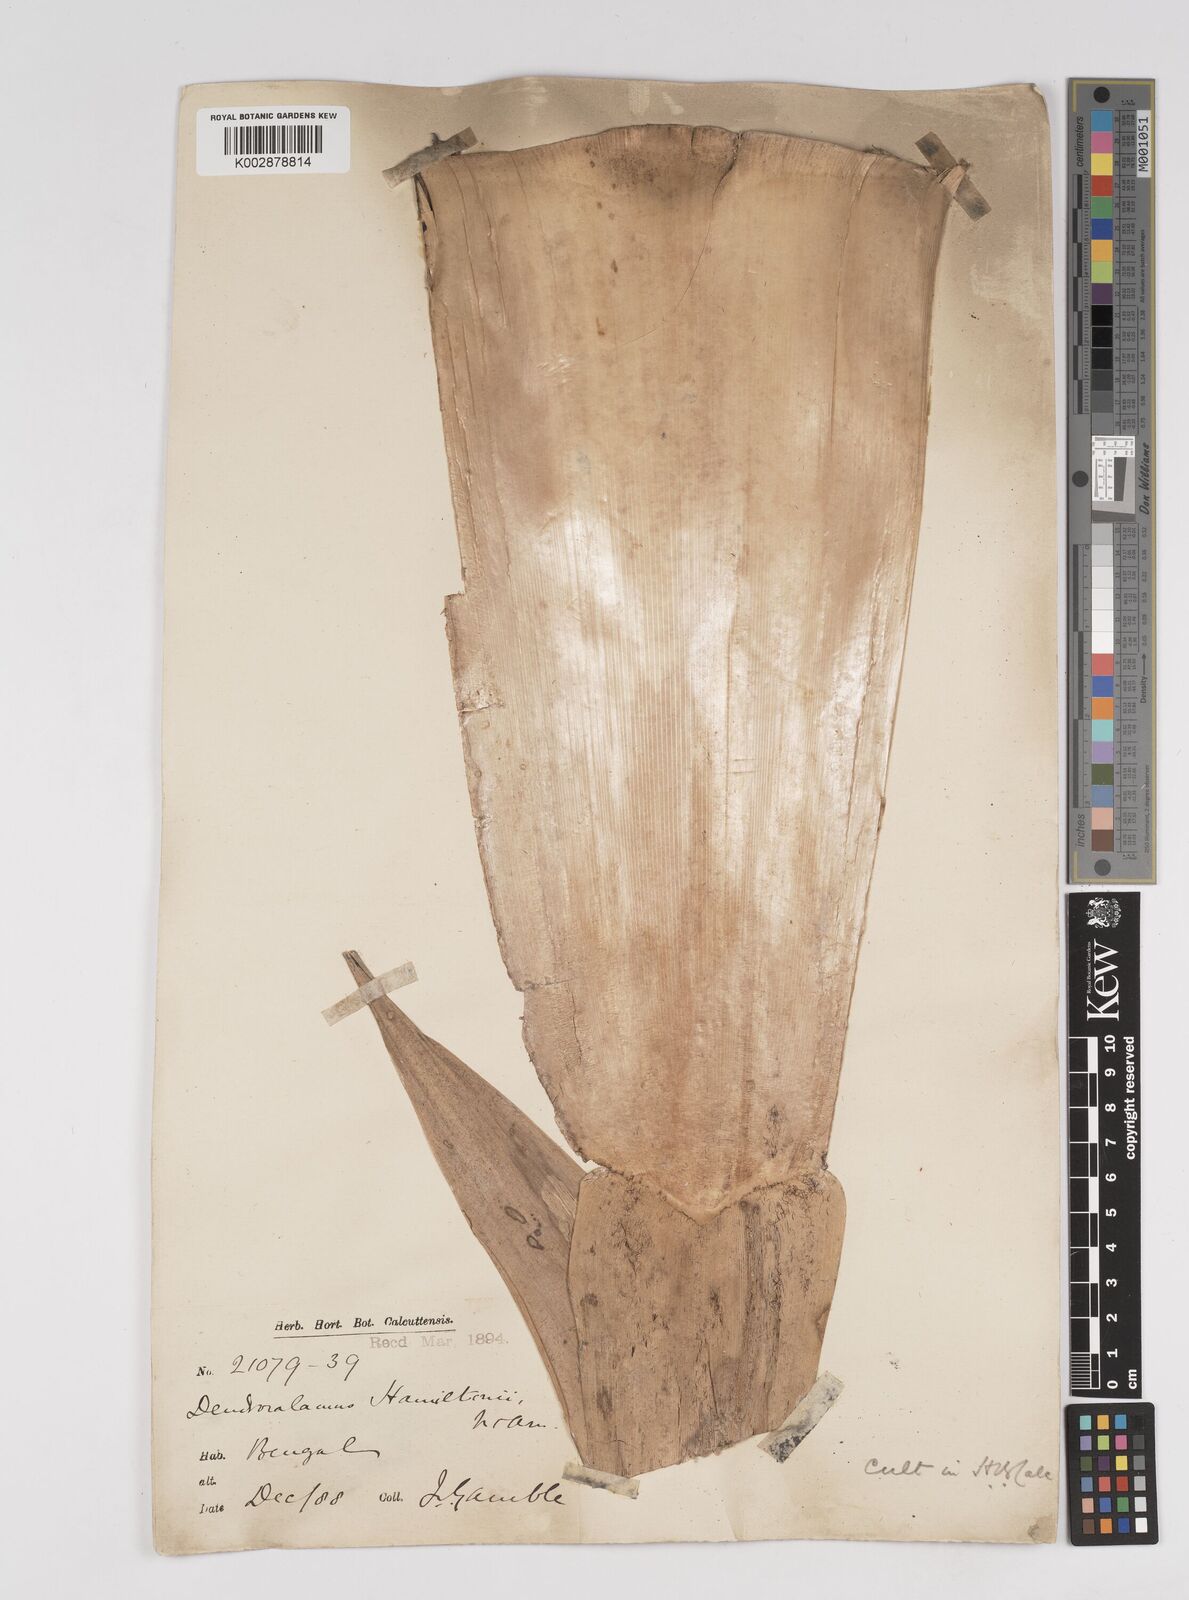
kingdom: Plantae
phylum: Tracheophyta
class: Liliopsida
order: Poales
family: Poaceae
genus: Dendrocalamus
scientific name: Dendrocalamus hamiltonii
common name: Tama bamboo
